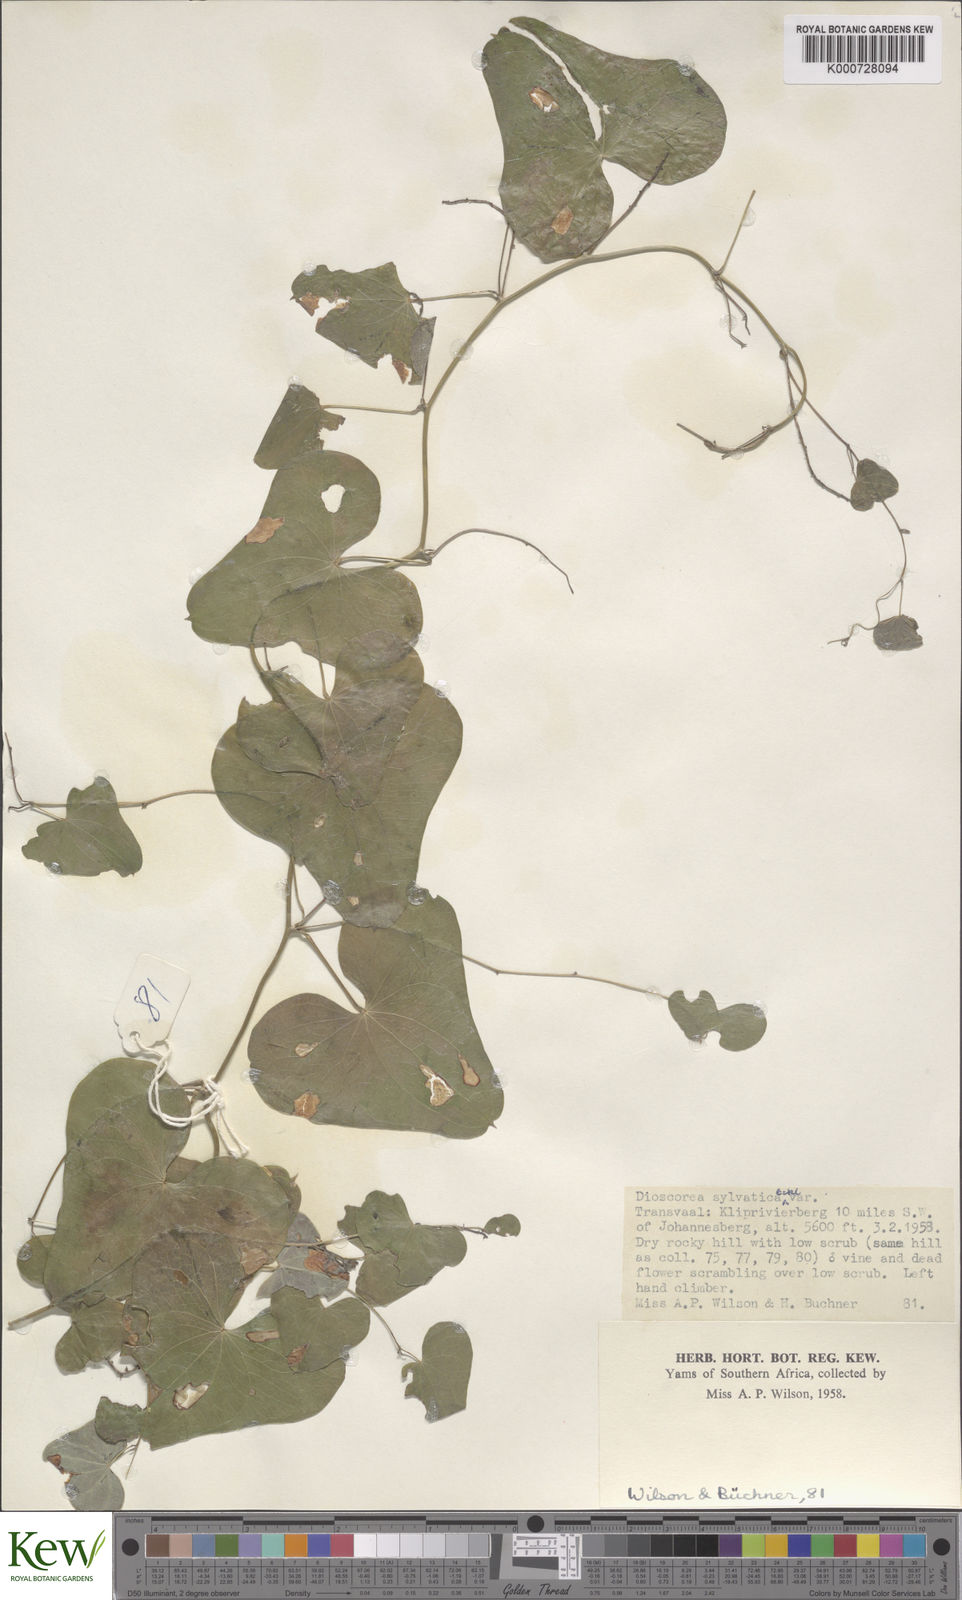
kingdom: Plantae
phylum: Tracheophyta
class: Liliopsida
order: Dioscoreales
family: Dioscoreaceae
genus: Dioscorea
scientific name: Dioscorea sylvatica
